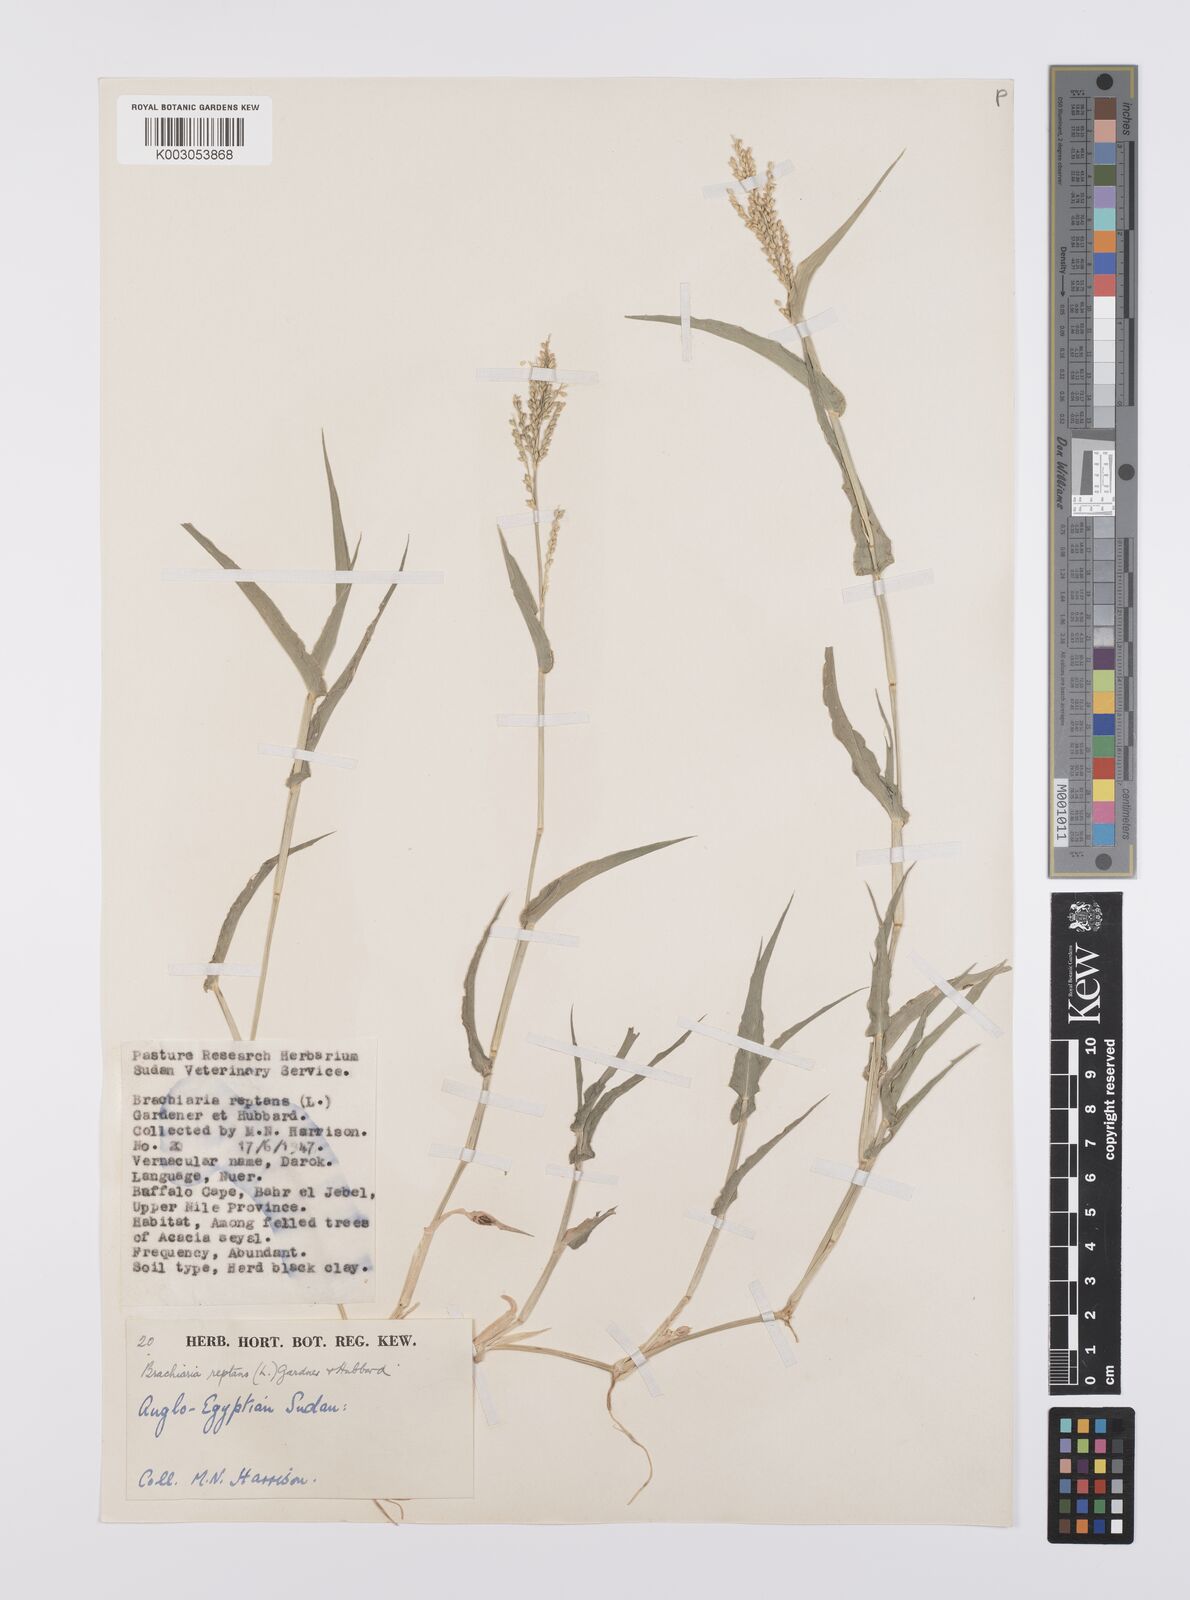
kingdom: Plantae
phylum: Tracheophyta
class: Liliopsida
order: Poales
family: Poaceae
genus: Urochloa
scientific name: Urochloa reptans
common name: Sprawling signalgrass
